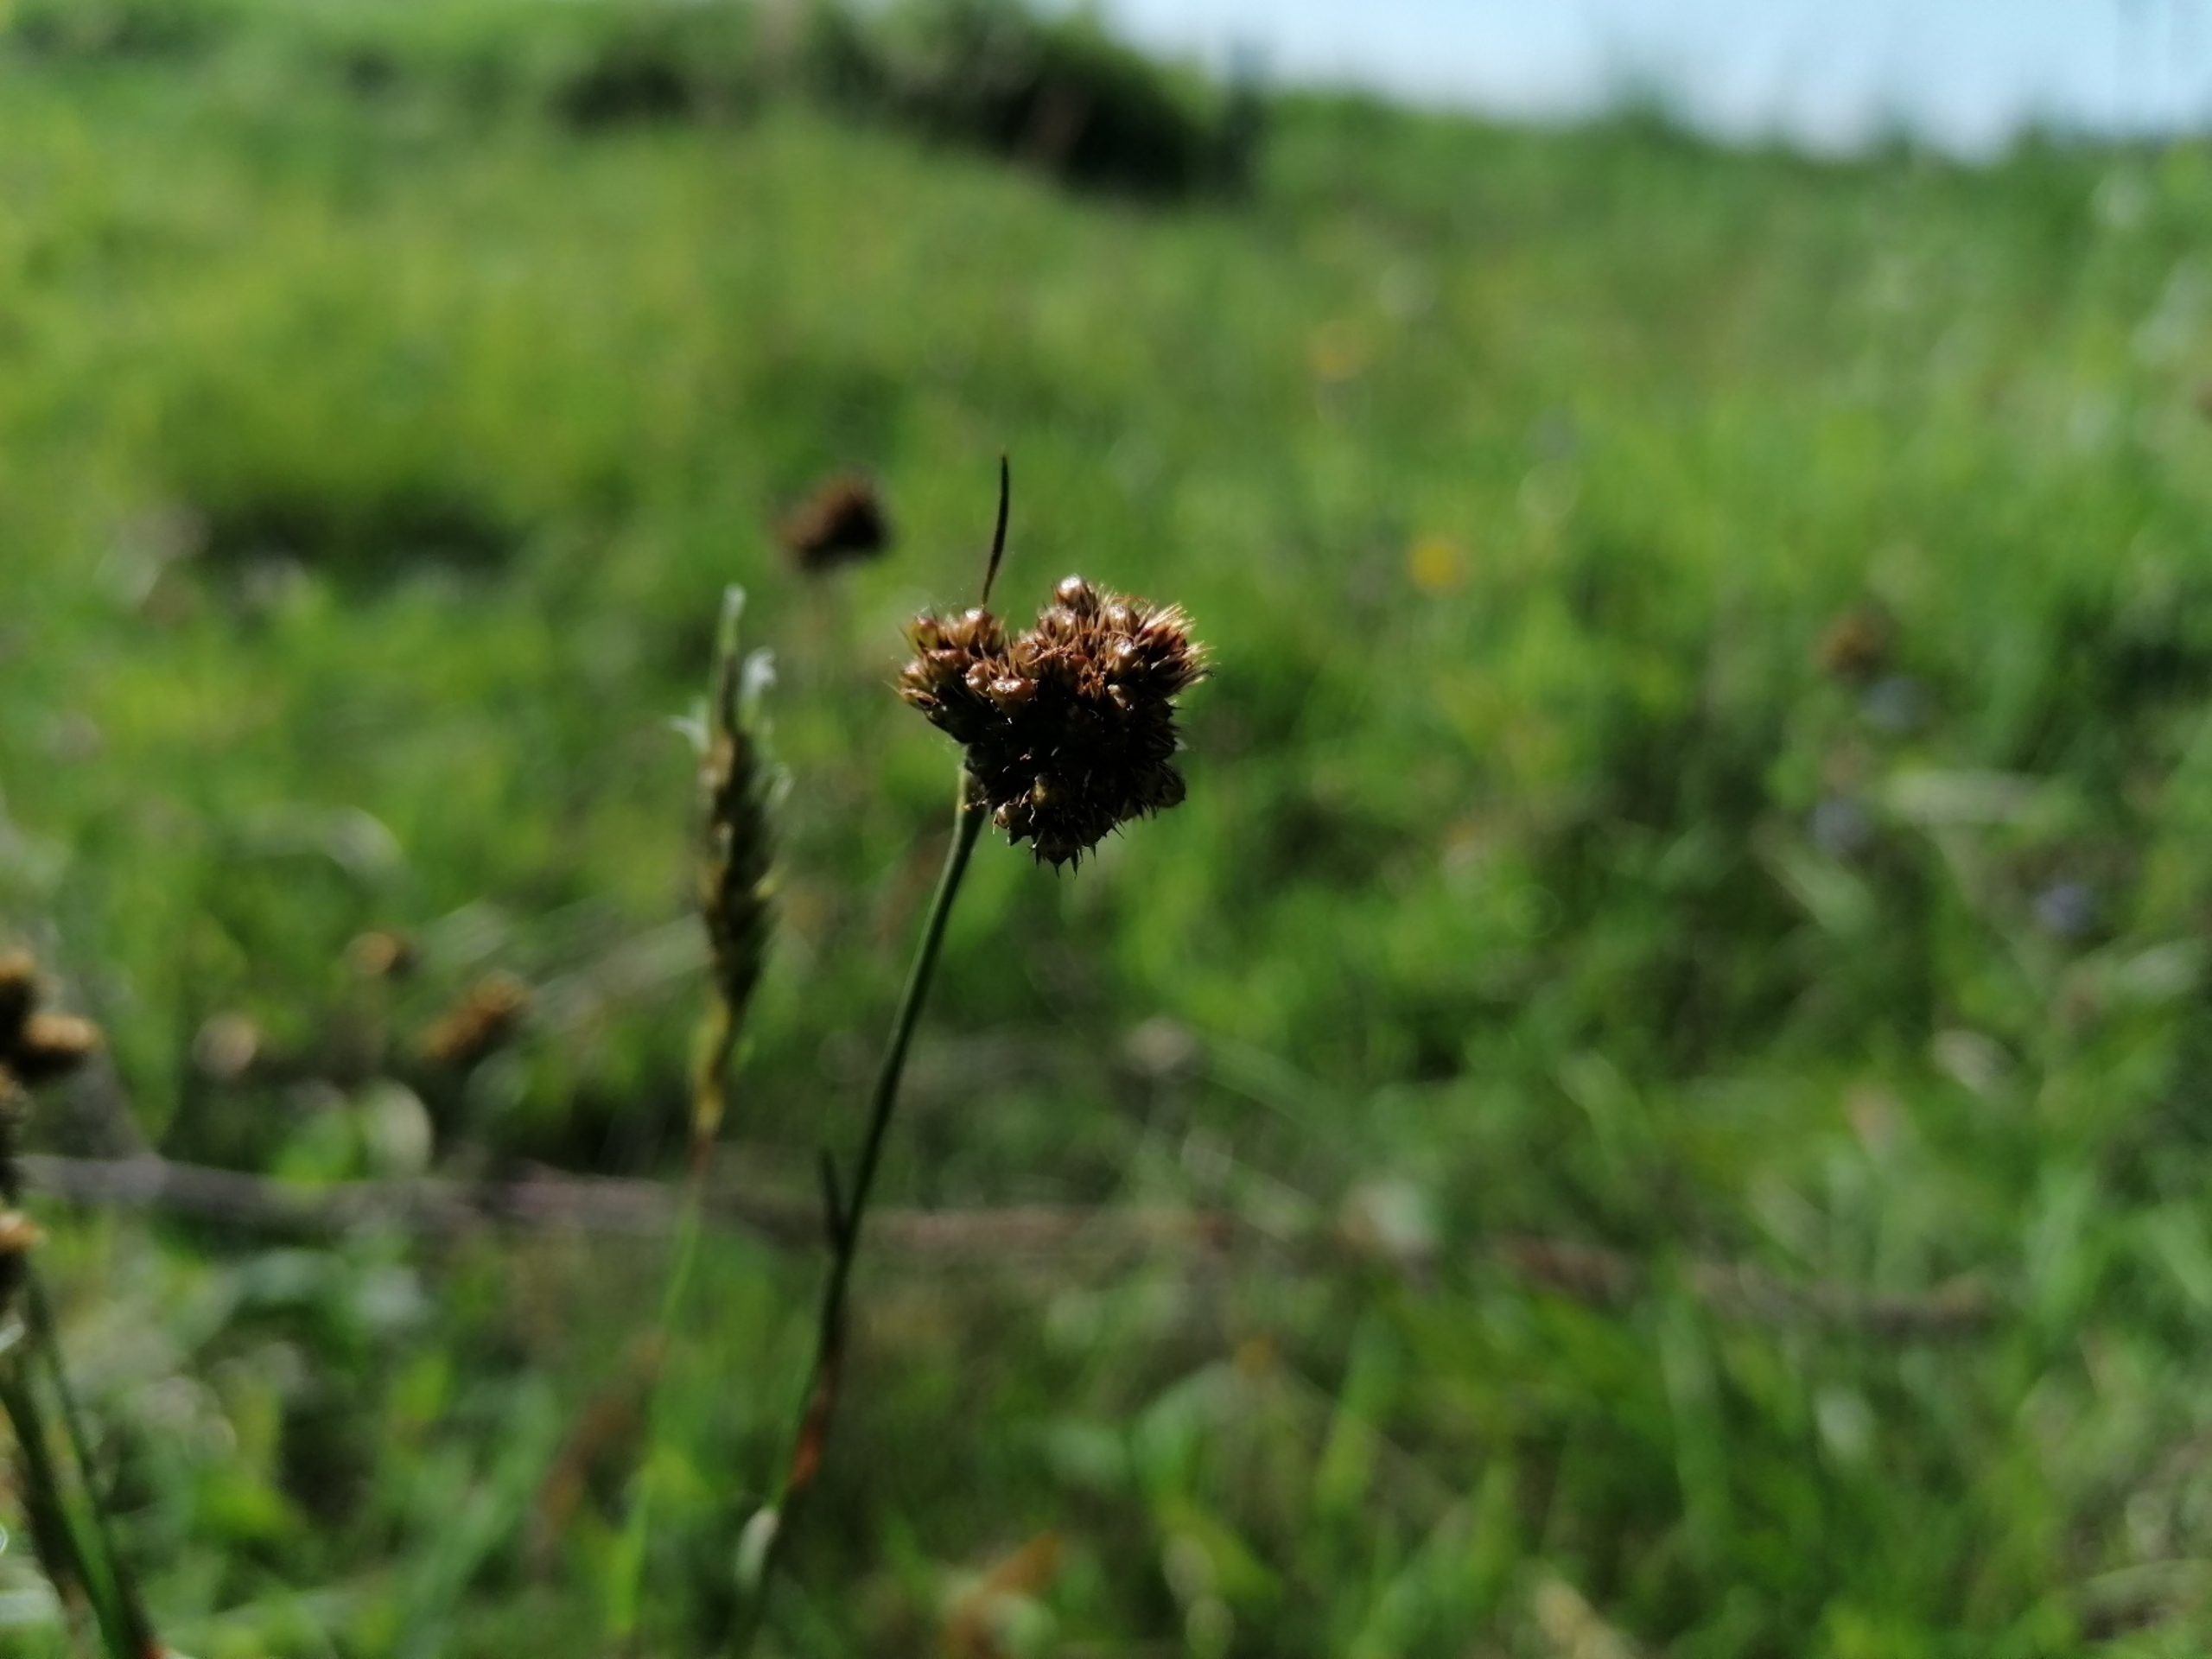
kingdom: Plantae
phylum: Tracheophyta
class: Liliopsida
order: Poales
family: Juncaceae
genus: Luzula
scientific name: Luzula congesta
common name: Hoved-frytle
